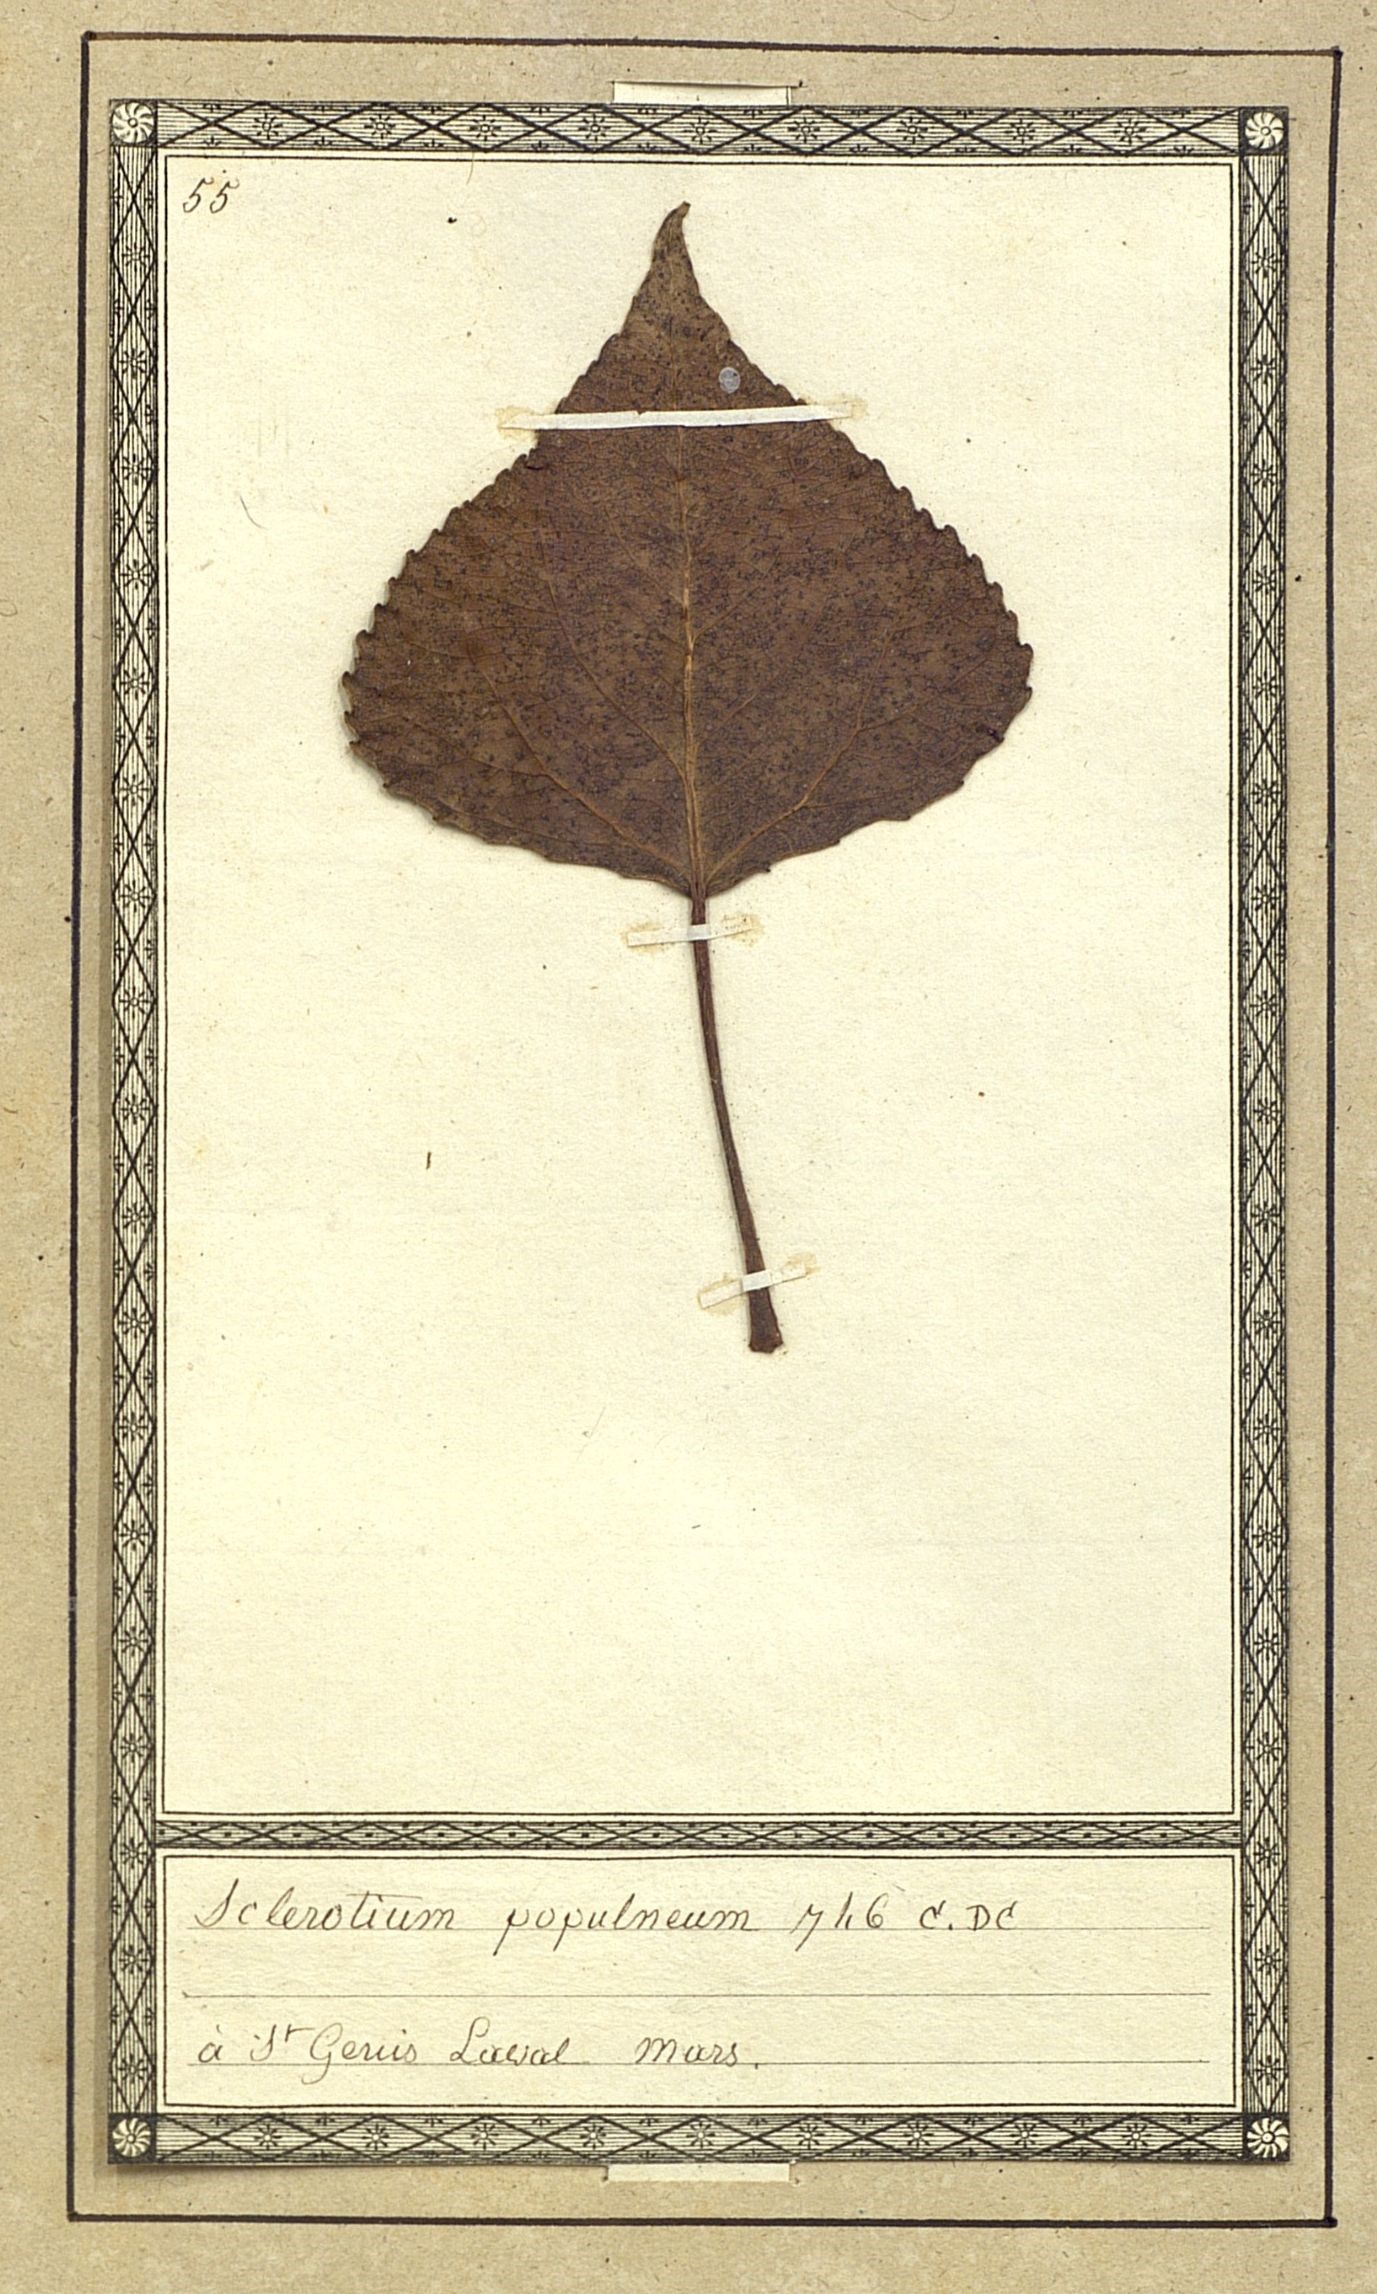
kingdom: Fungi
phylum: Basidiomycota
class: Pucciniomycetes
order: Pucciniales
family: Melampsoraceae
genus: Melampsora
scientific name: Melampsora populnea
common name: Dog's mercury rust
